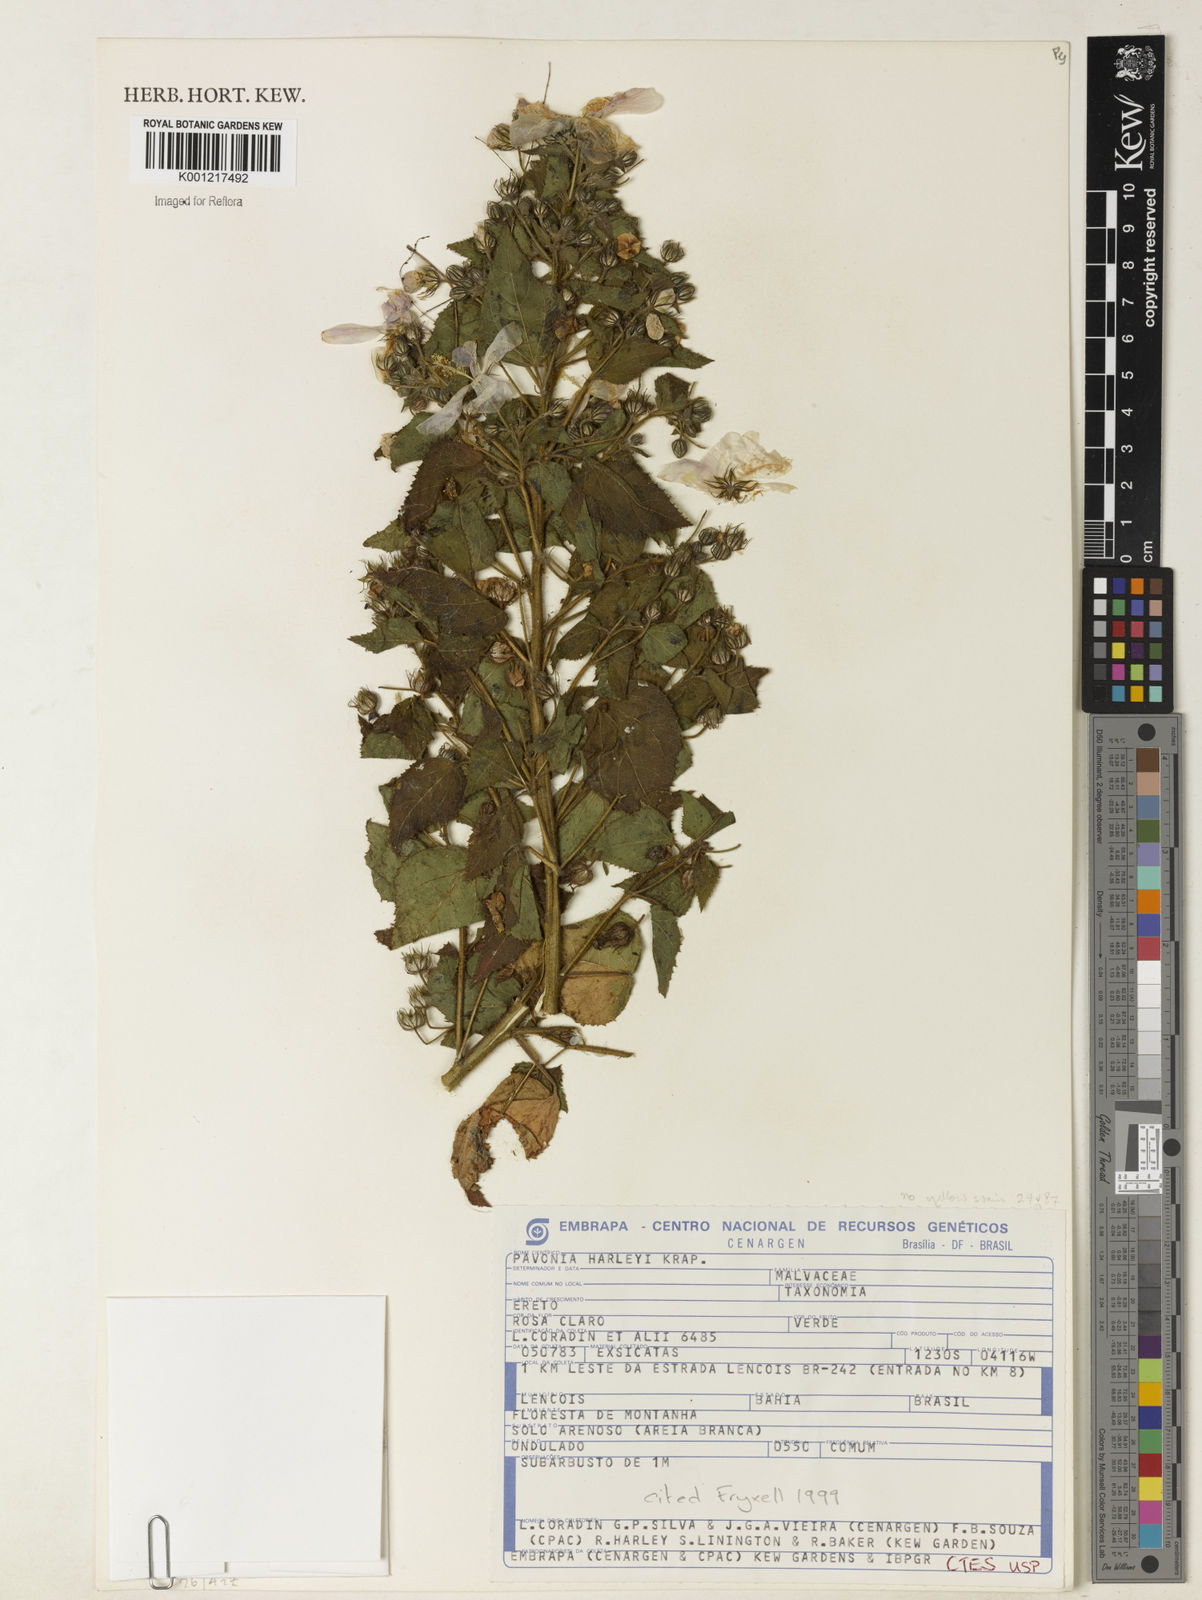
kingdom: Plantae
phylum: Tracheophyta
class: Magnoliopsida
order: Malvales
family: Malvaceae
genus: Pavonia
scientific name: Pavonia harleyi
